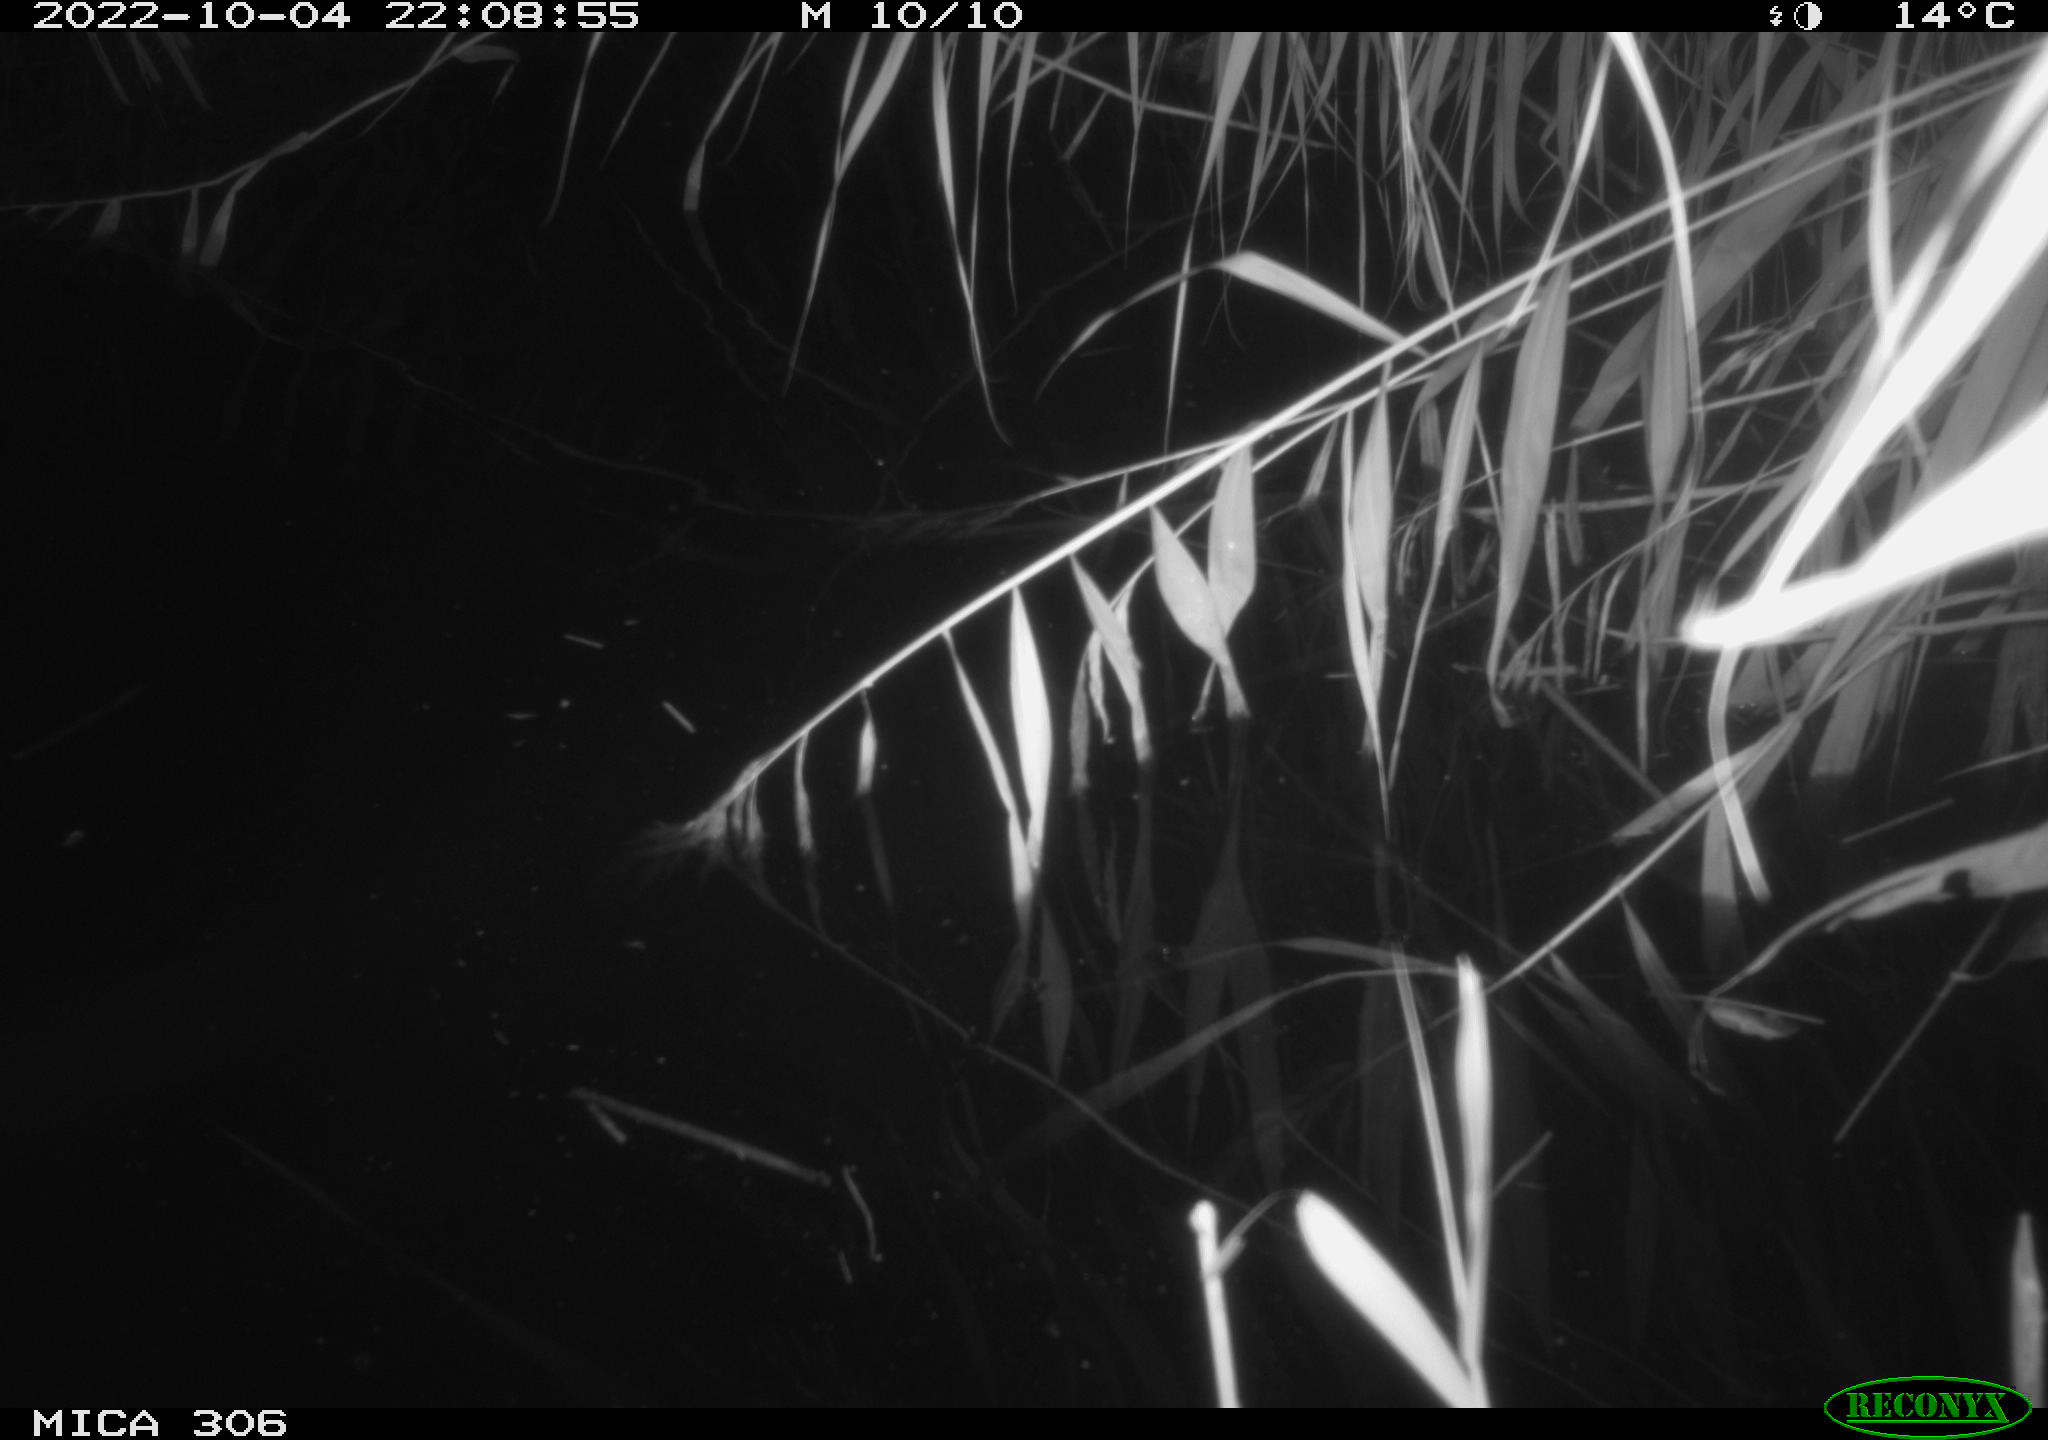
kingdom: Animalia
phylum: Chordata
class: Mammalia
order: Rodentia
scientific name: Rodentia
